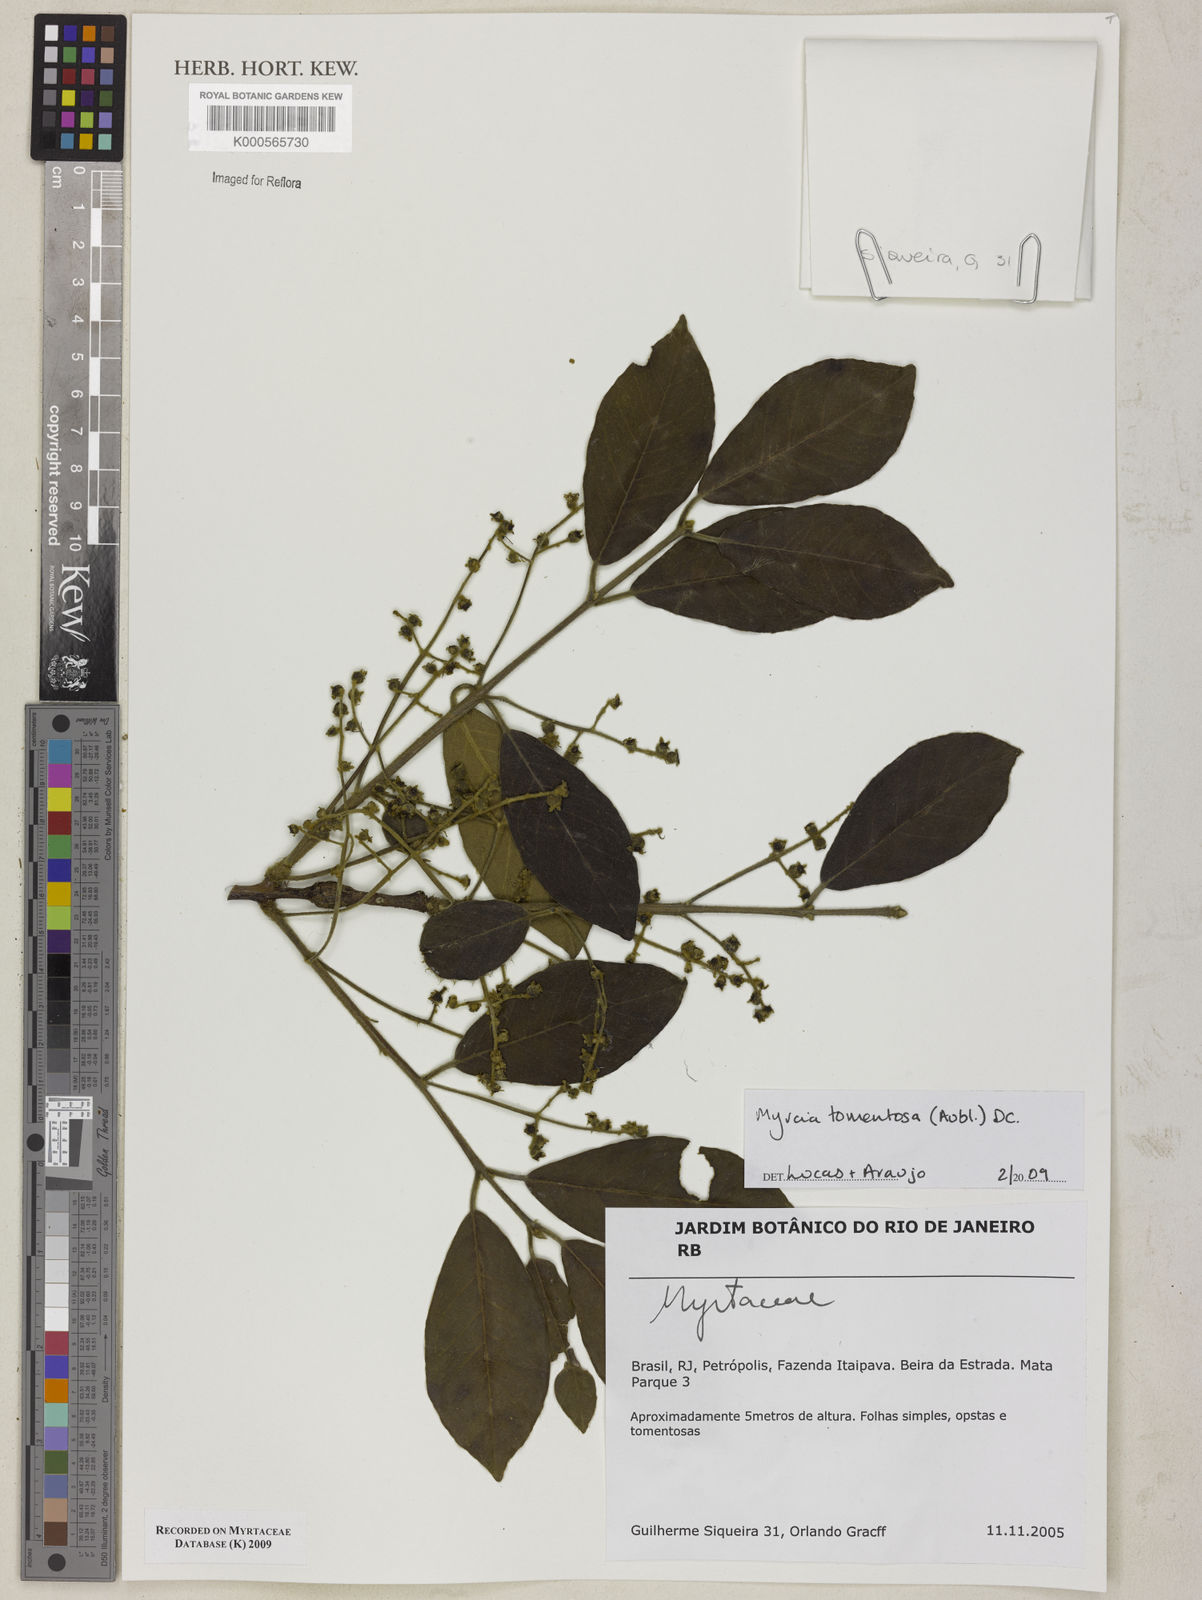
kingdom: Plantae
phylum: Tracheophyta
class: Magnoliopsida
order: Myrtales
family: Myrtaceae
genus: Myrcia
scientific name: Myrcia tomentosa
